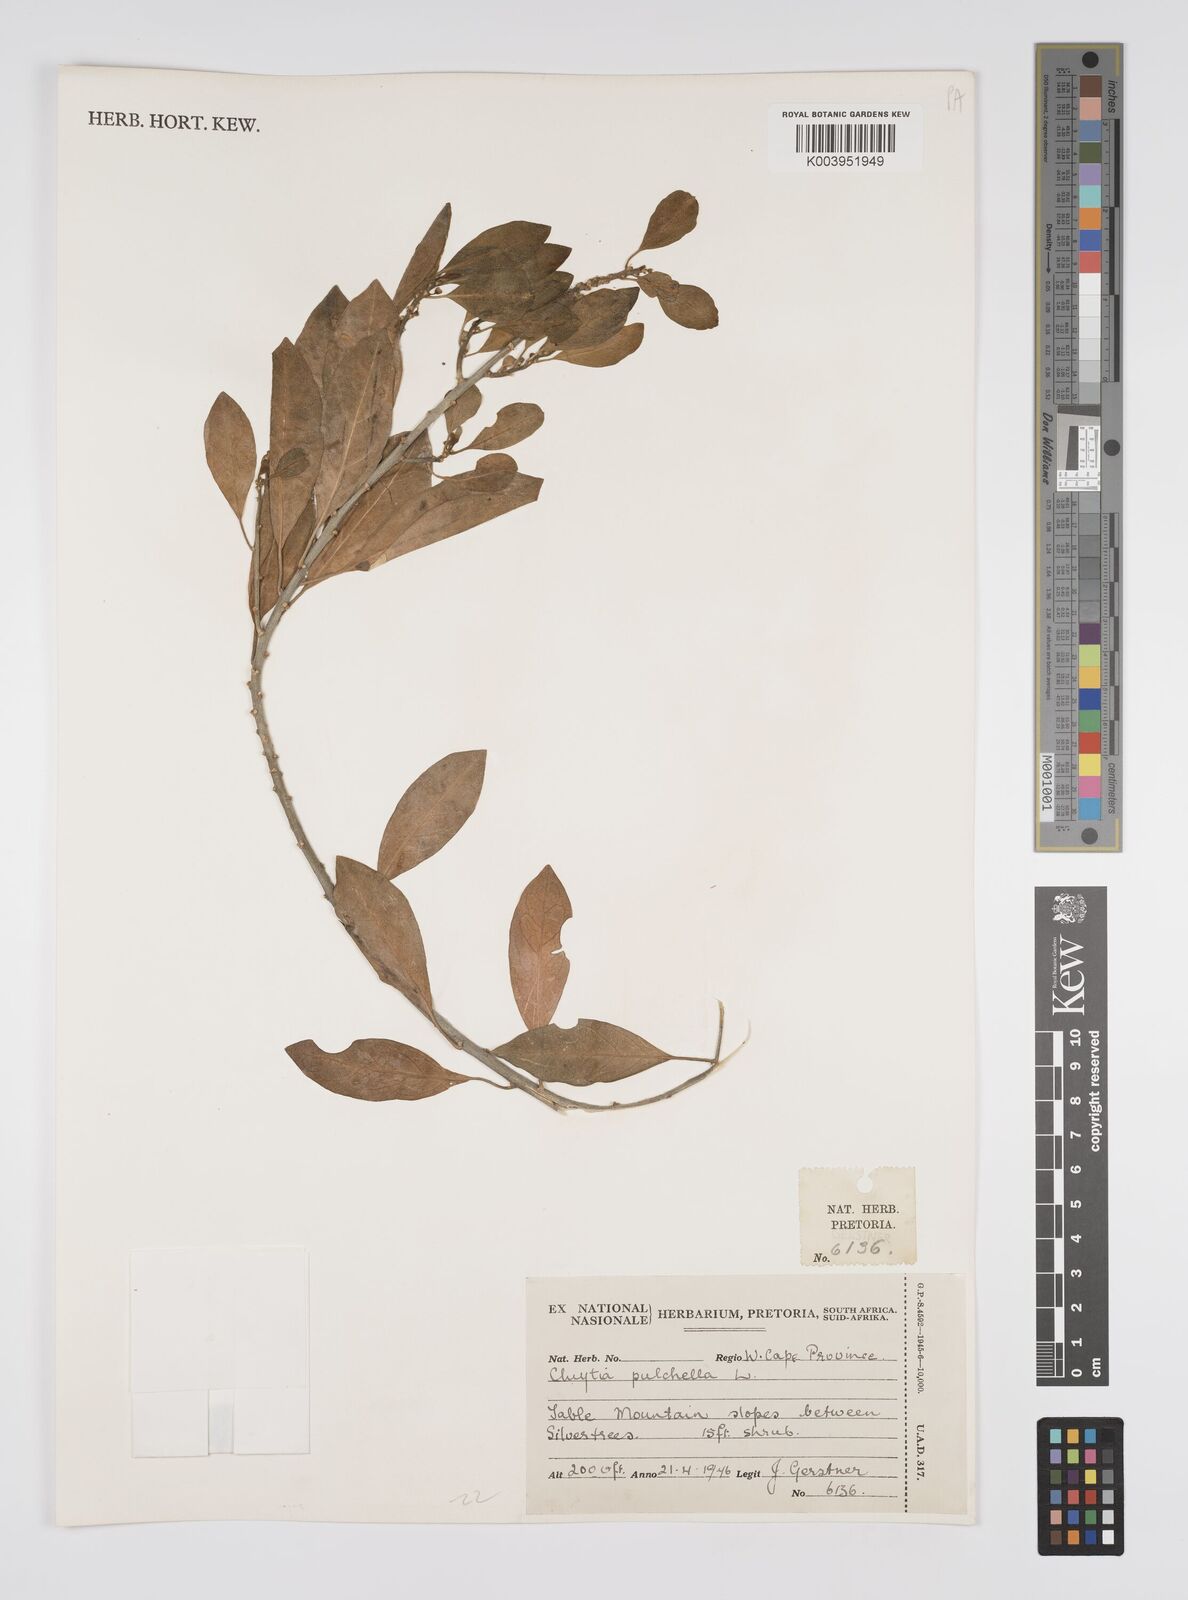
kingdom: Plantae
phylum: Tracheophyta
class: Magnoliopsida
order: Malpighiales
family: Peraceae
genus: Clutia
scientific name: Clutia pulchella
